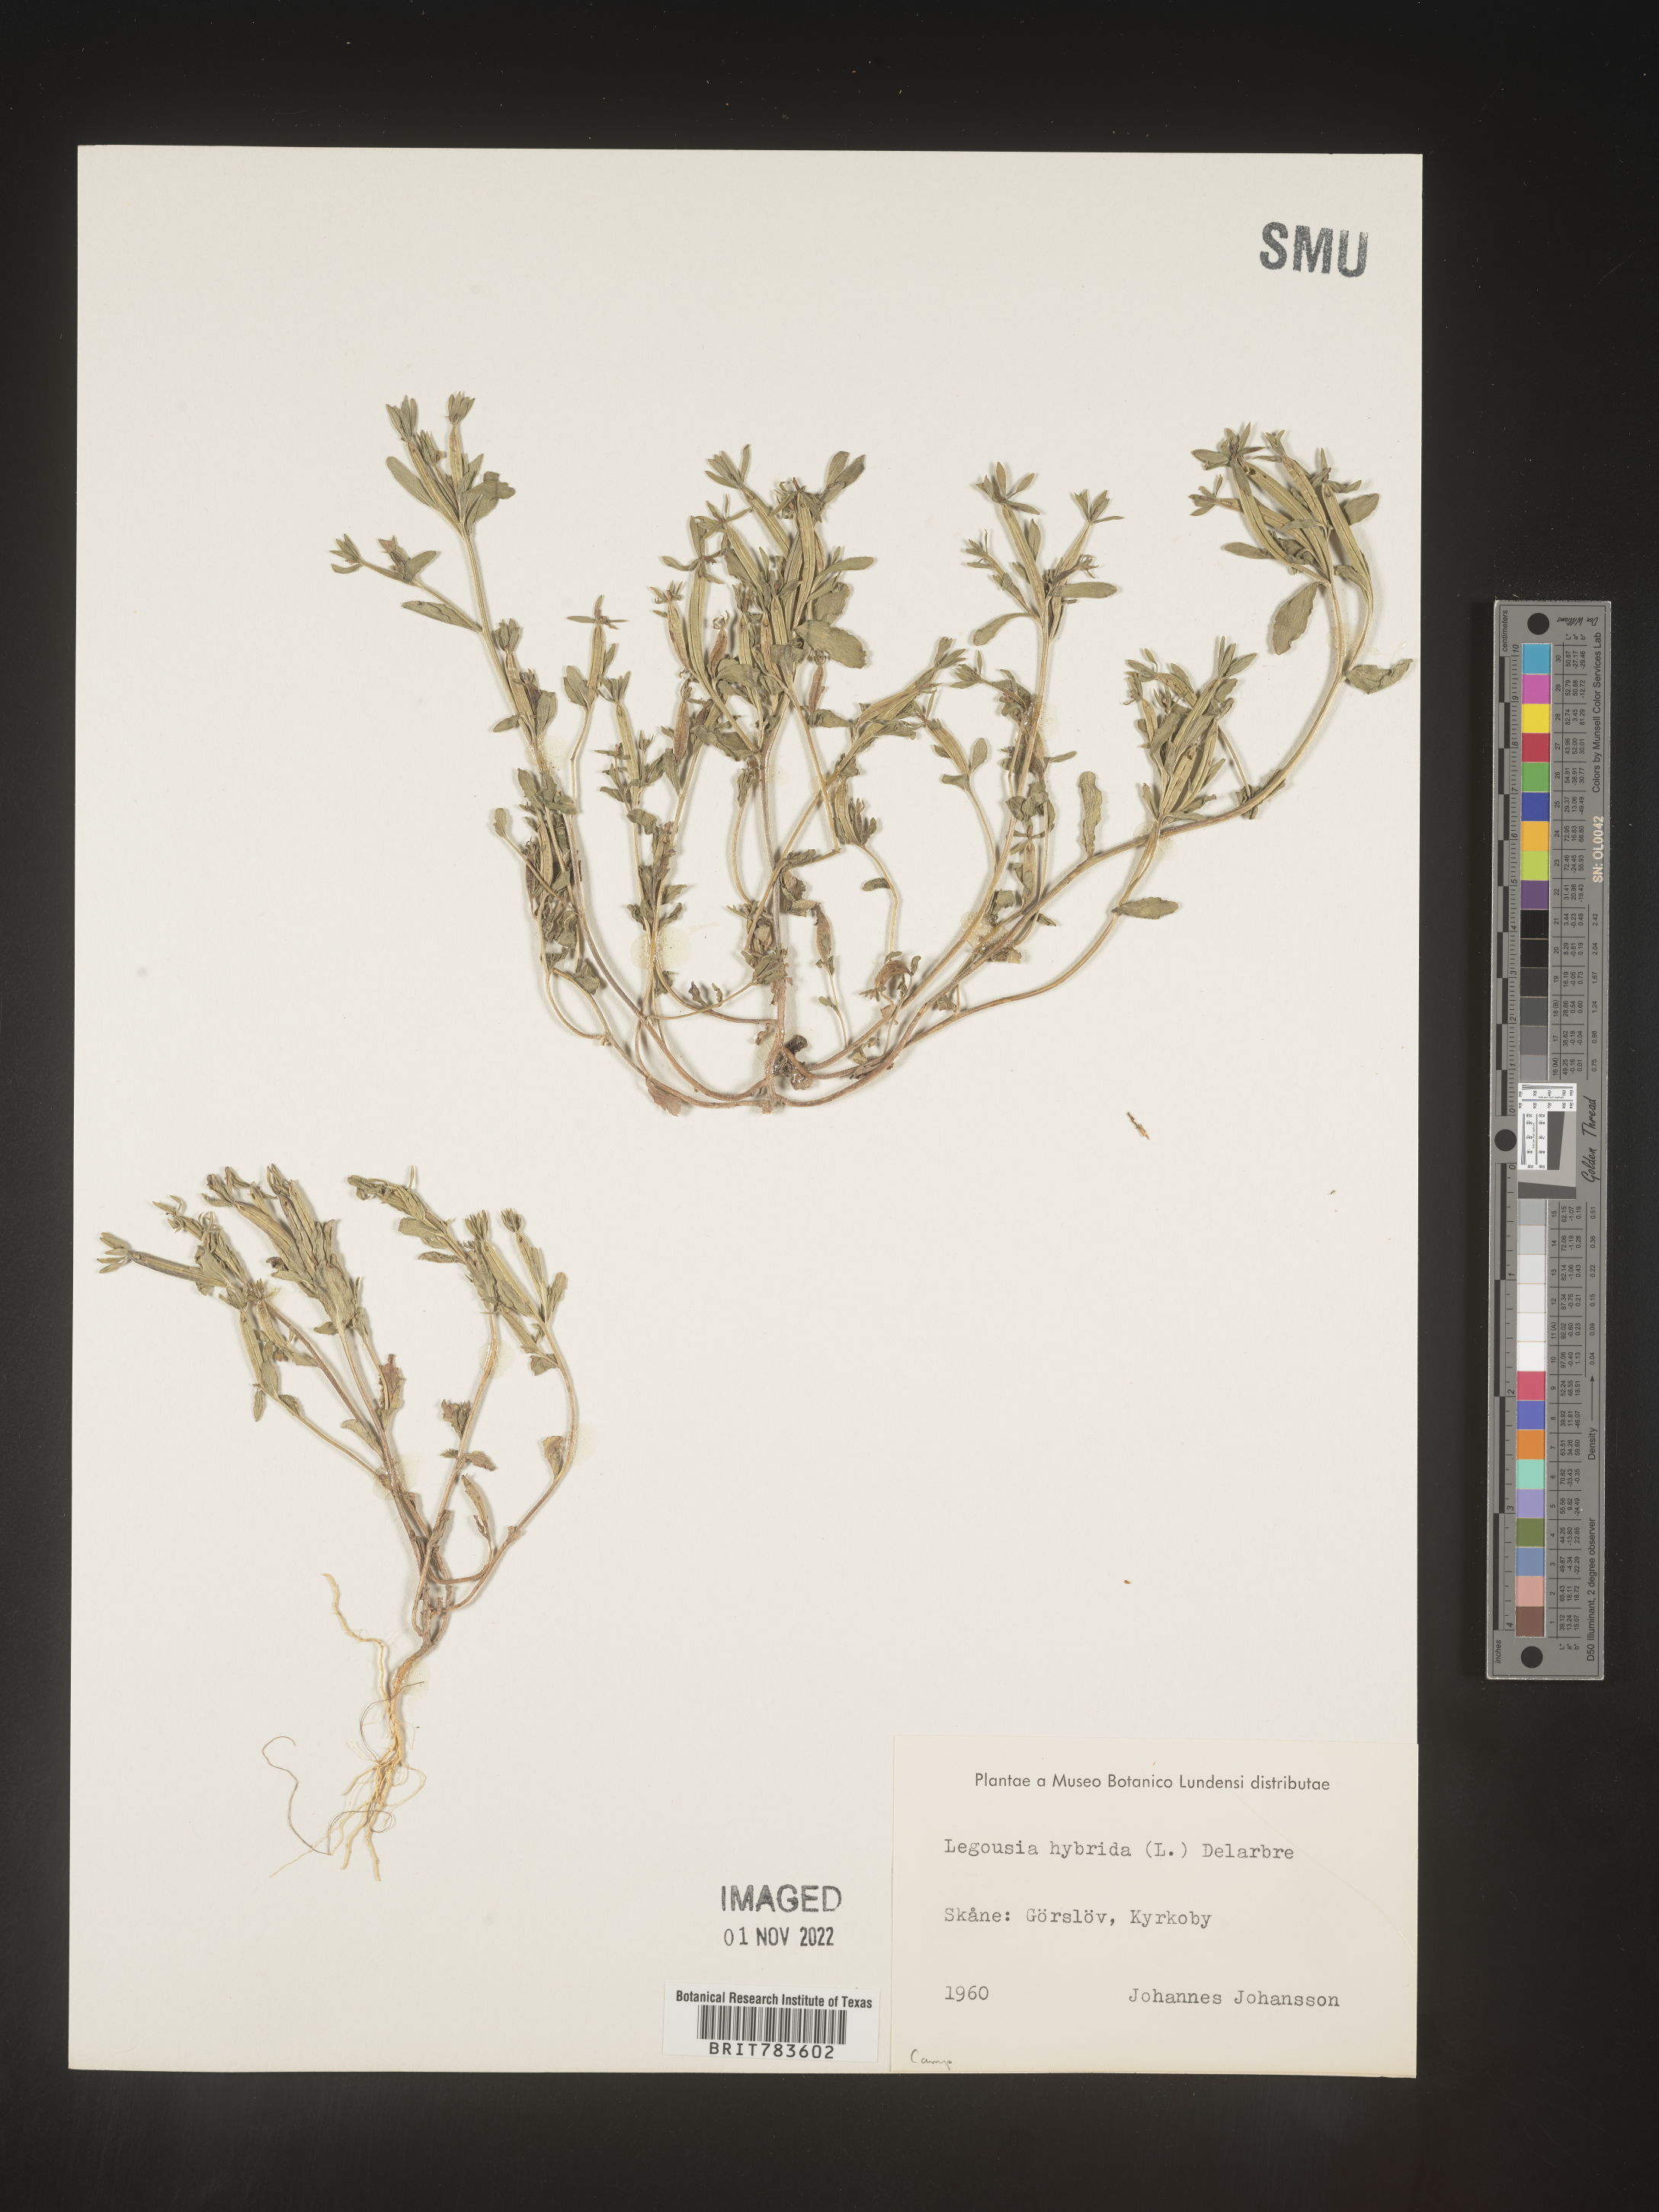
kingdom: Plantae
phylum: Tracheophyta
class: Magnoliopsida
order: Asterales
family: Campanulaceae
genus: Specularia
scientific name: Specularia
